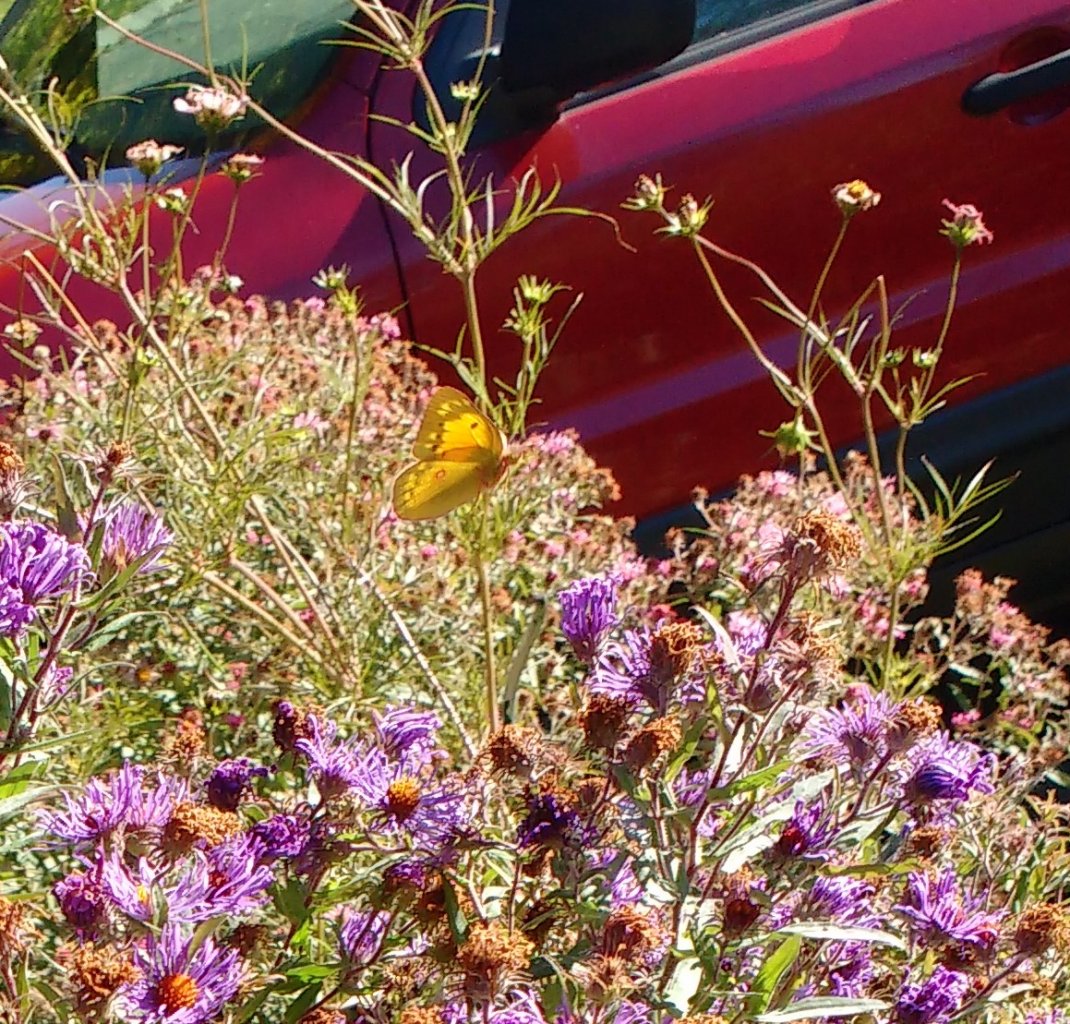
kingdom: Animalia
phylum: Arthropoda
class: Insecta
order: Lepidoptera
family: Pieridae
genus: Colias
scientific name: Colias philodice
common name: Clouded Sulphur
